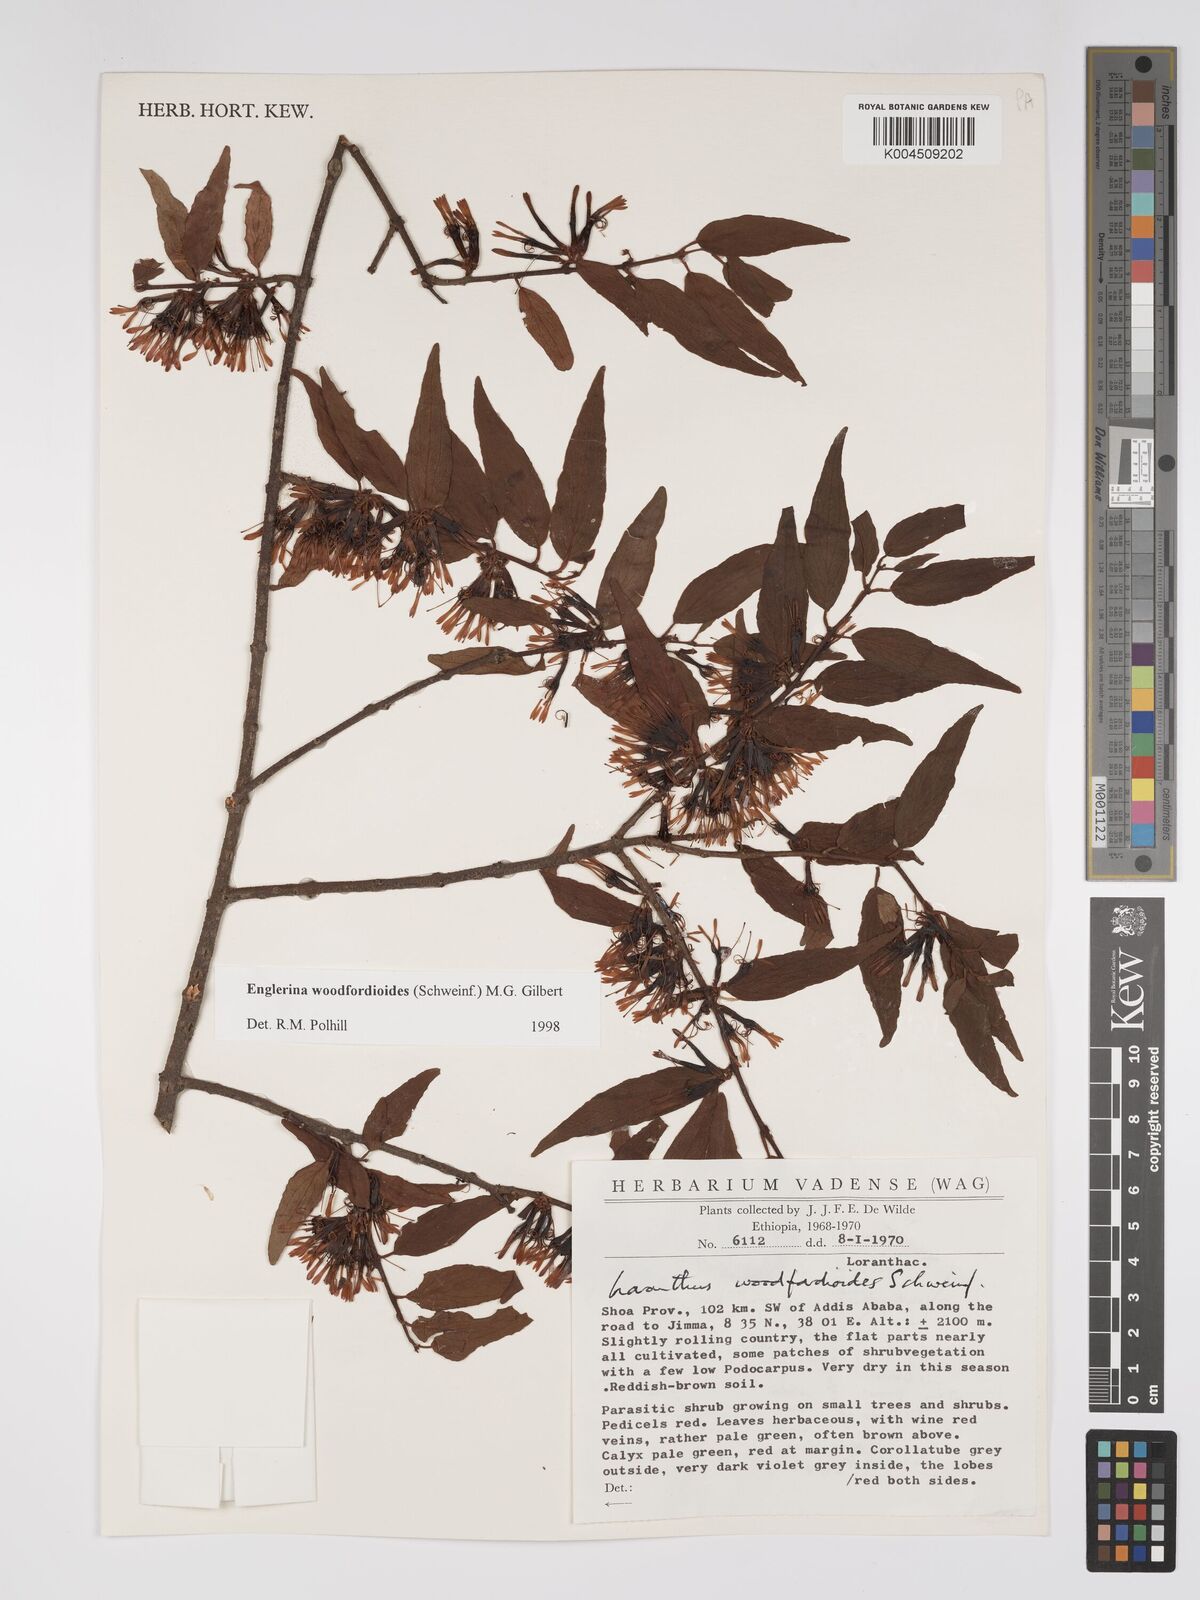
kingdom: Plantae
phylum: Tracheophyta
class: Magnoliopsida
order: Santalales
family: Loranthaceae
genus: Englerina
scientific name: Englerina woodfordioides
